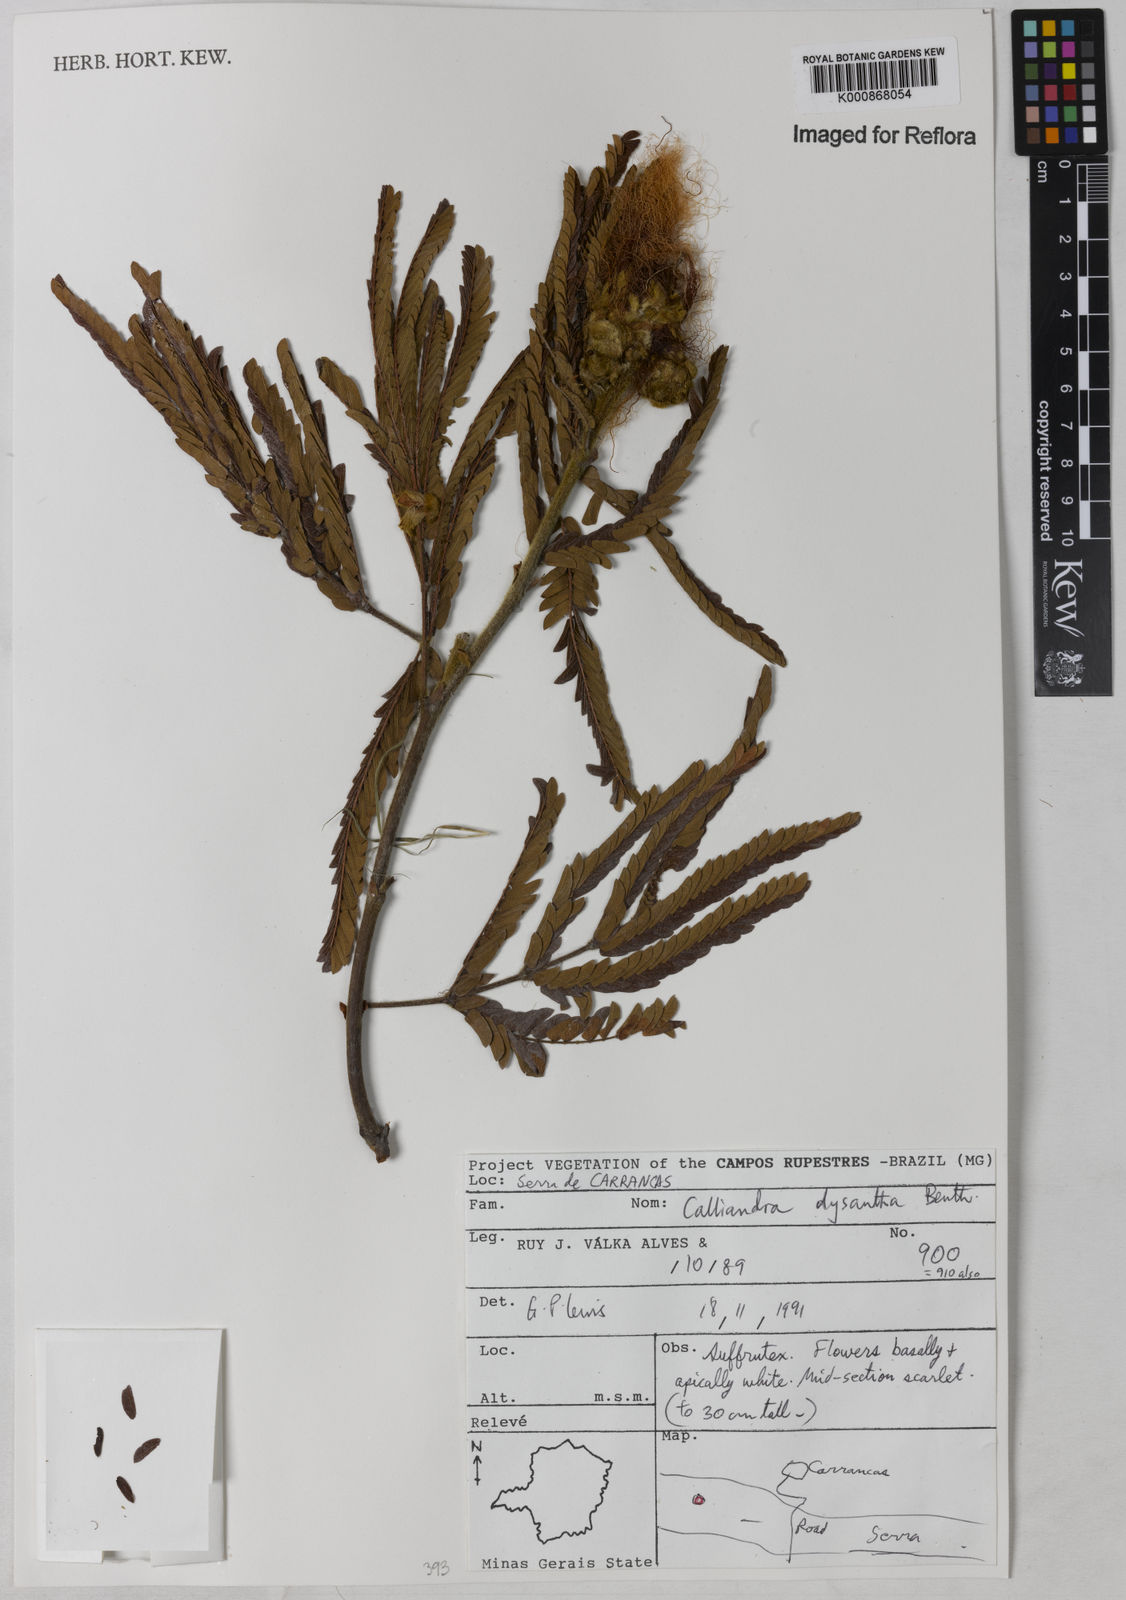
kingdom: Plantae
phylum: Tracheophyta
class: Magnoliopsida
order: Fabales
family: Fabaceae
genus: Calliandra
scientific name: Calliandra dysantha
